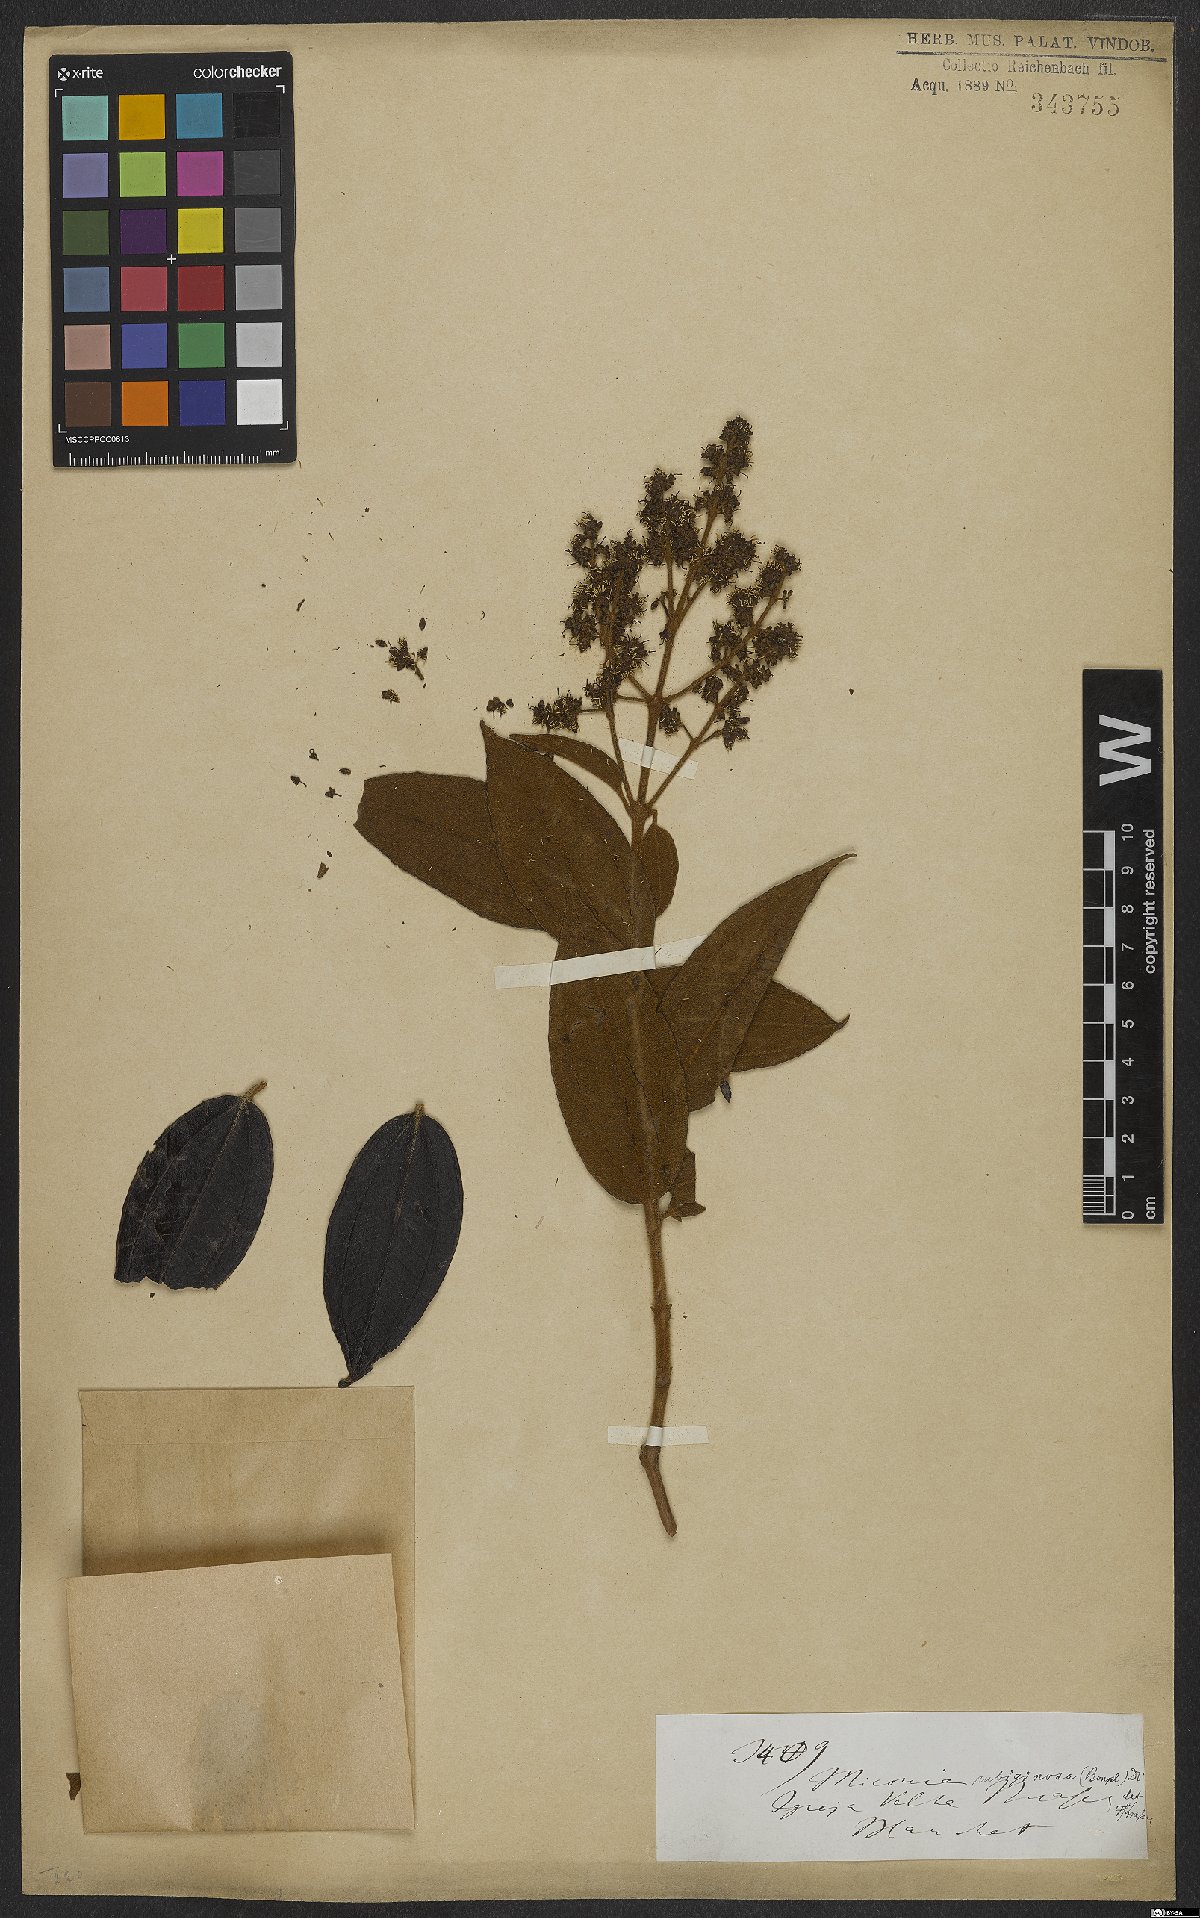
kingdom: Plantae
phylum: Tracheophyta
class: Magnoliopsida
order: Myrtales
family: Melastomataceae
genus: Miconia
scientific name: Miconia rubiginosa
